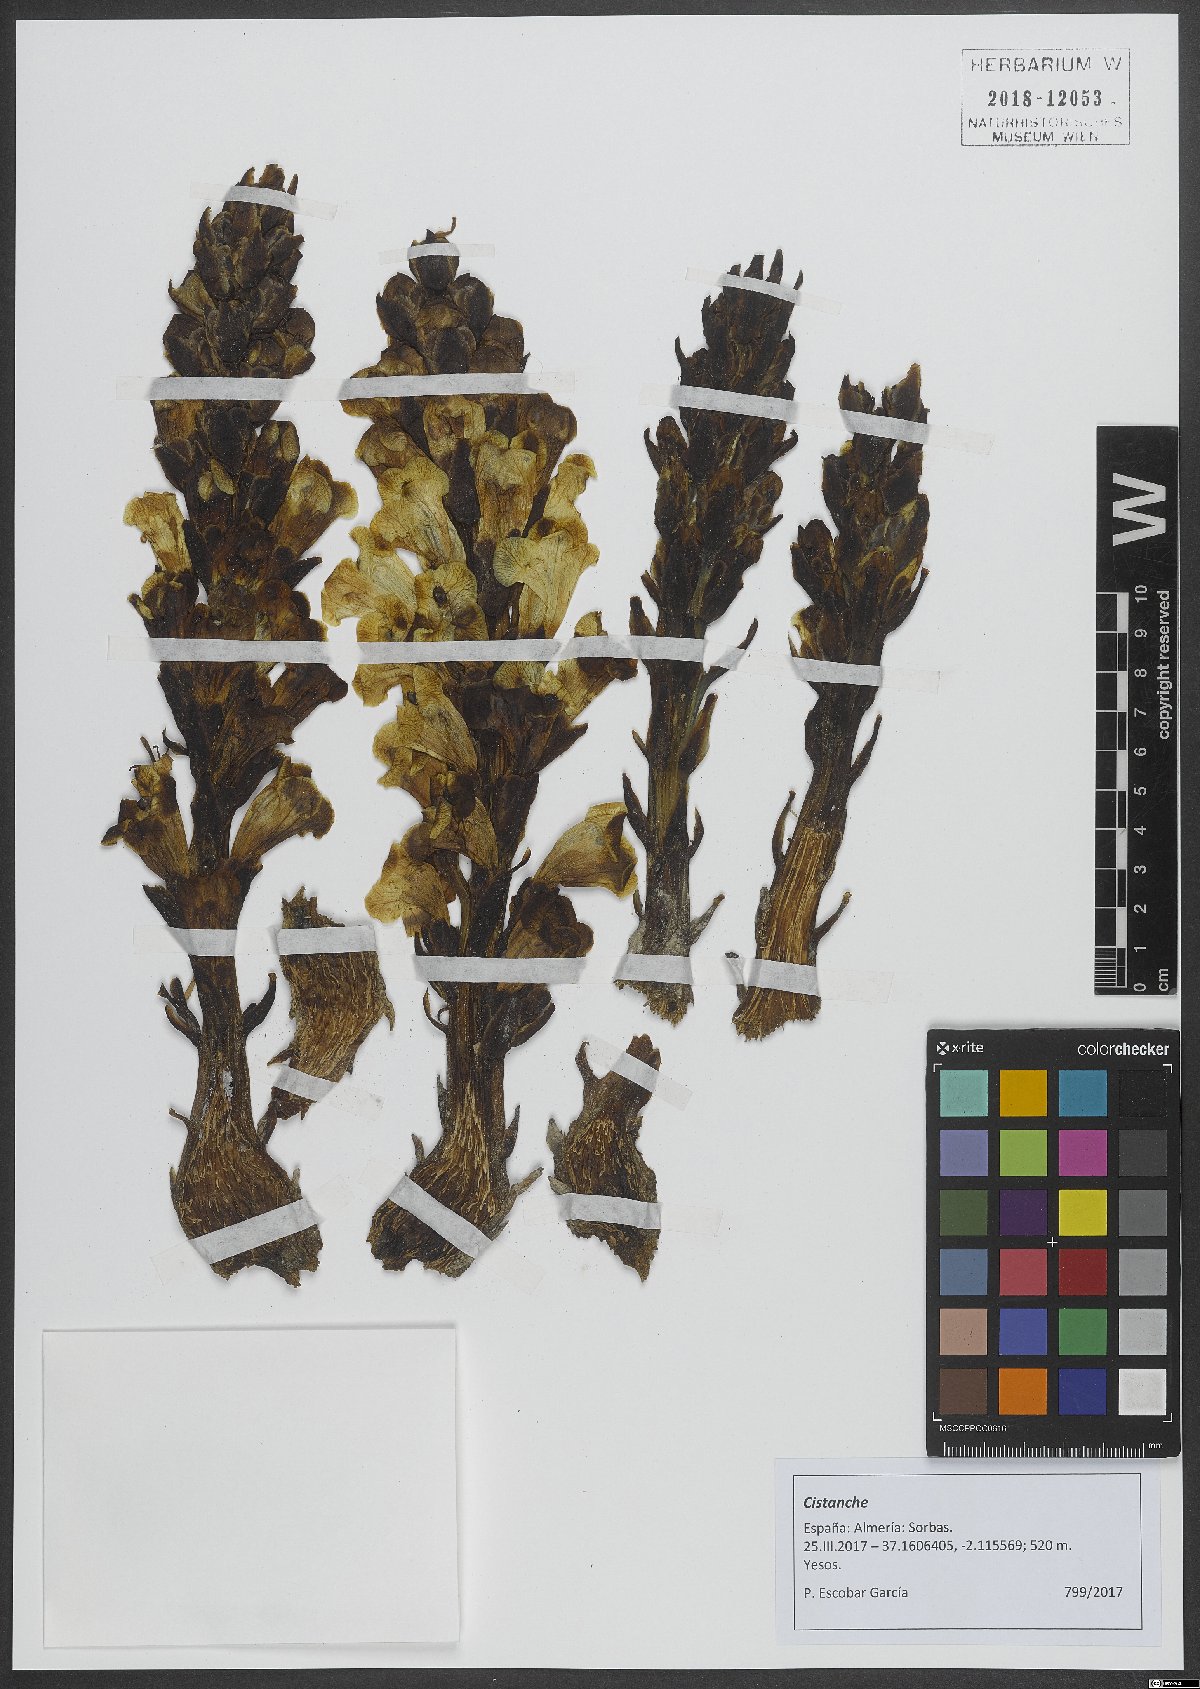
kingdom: Plantae
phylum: Tracheophyta
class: Magnoliopsida
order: Lamiales
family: Orobanchaceae
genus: Cistanche
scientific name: Cistanche
